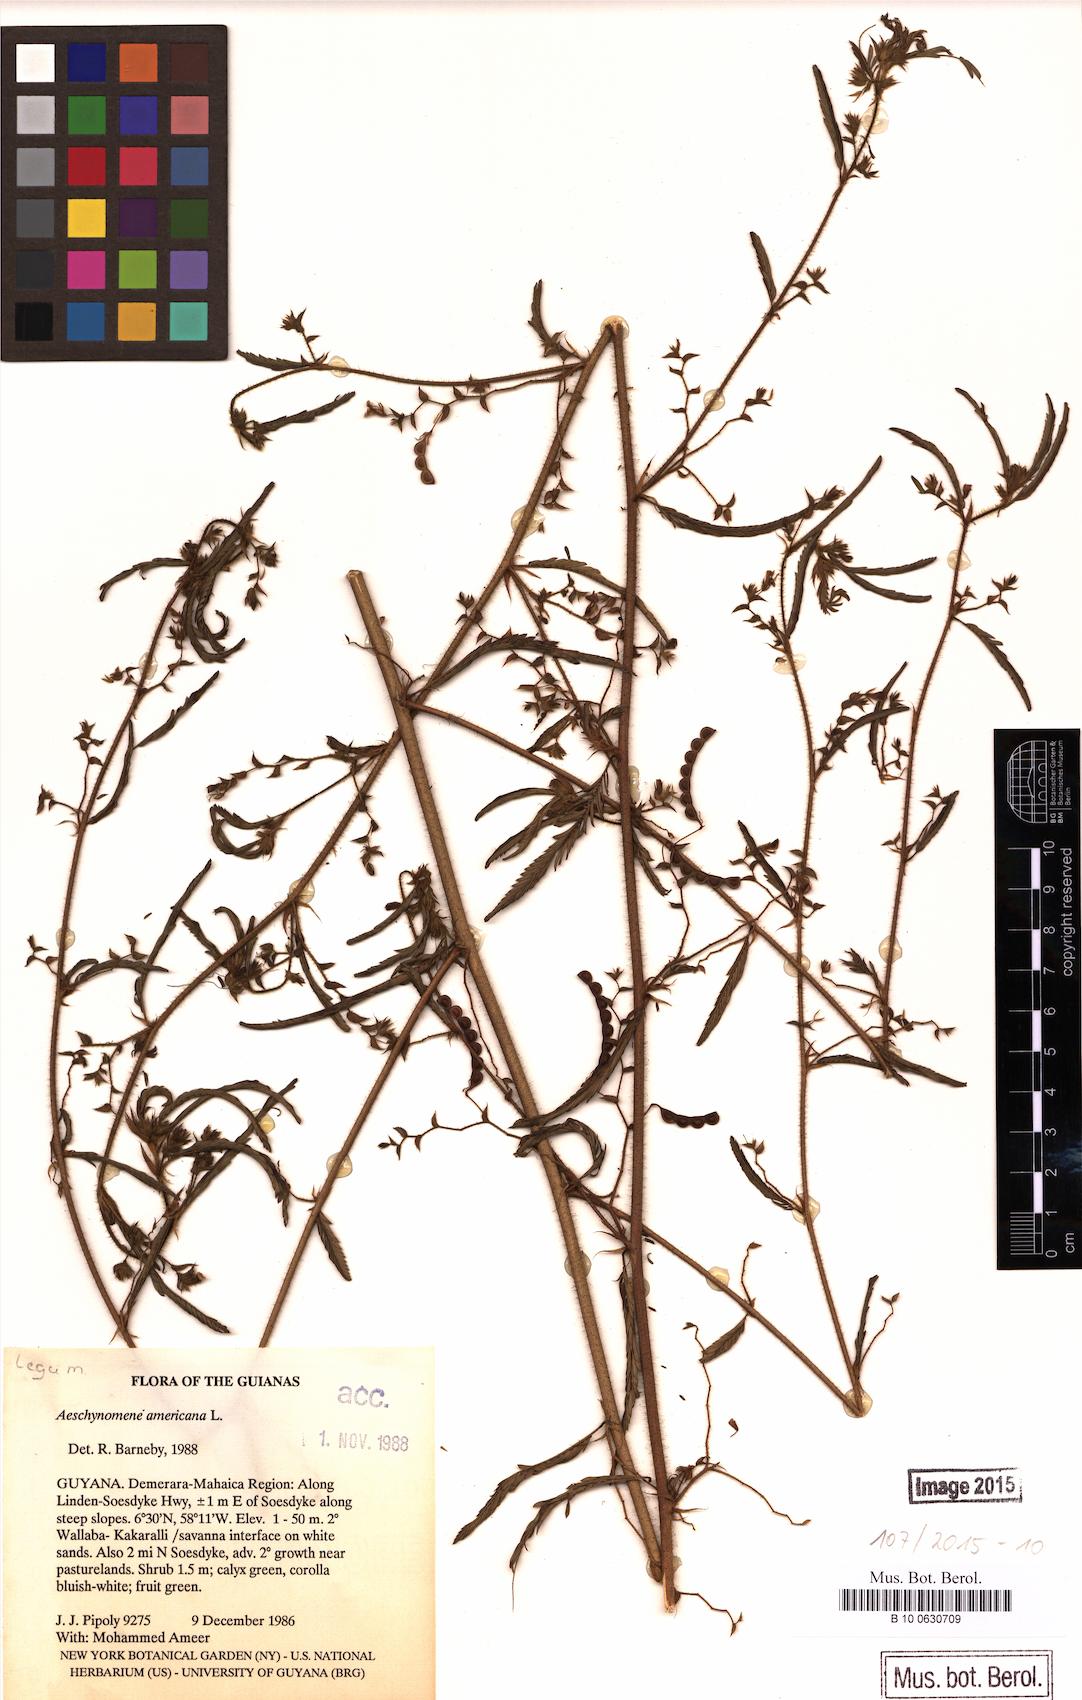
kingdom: Plantae
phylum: Tracheophyta
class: Magnoliopsida
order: Fabales
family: Fabaceae
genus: Aeschynomene
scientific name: Aeschynomene americana
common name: Joint-vetch
